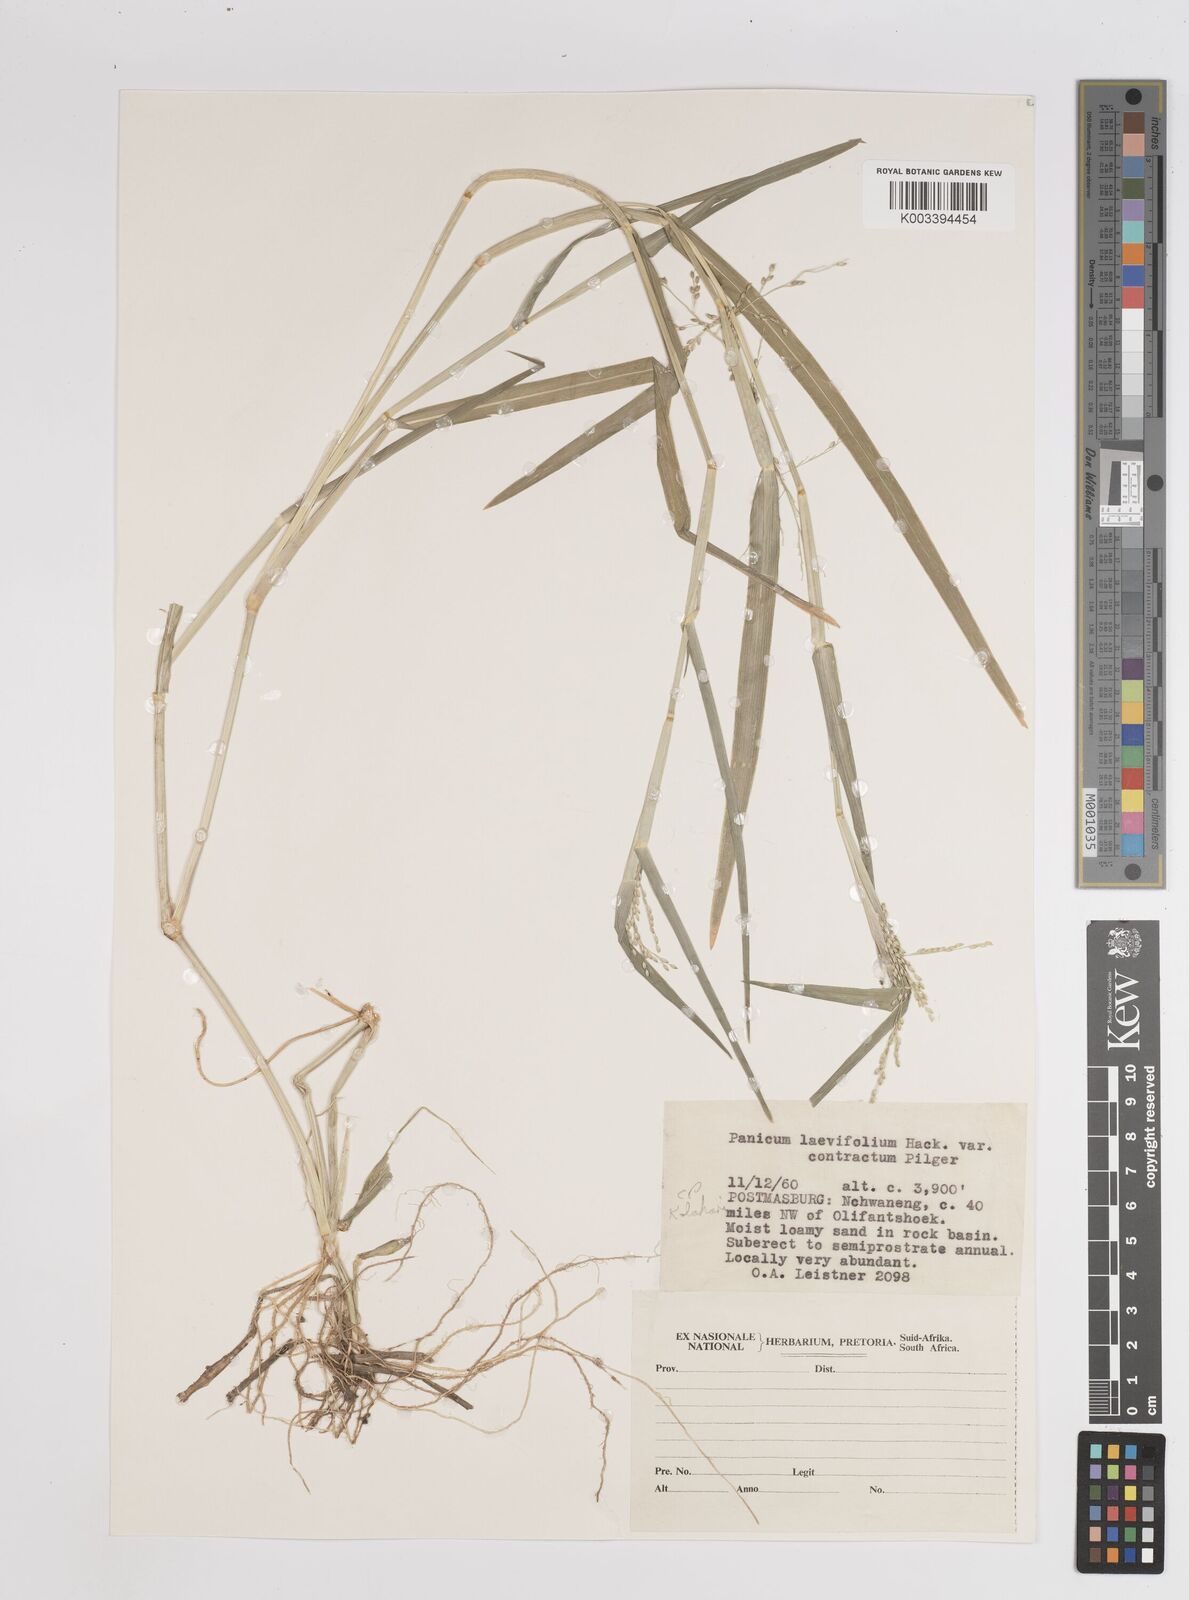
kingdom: Plantae
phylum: Tracheophyta
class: Liliopsida
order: Poales
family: Poaceae
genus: Panicum
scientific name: Panicum
